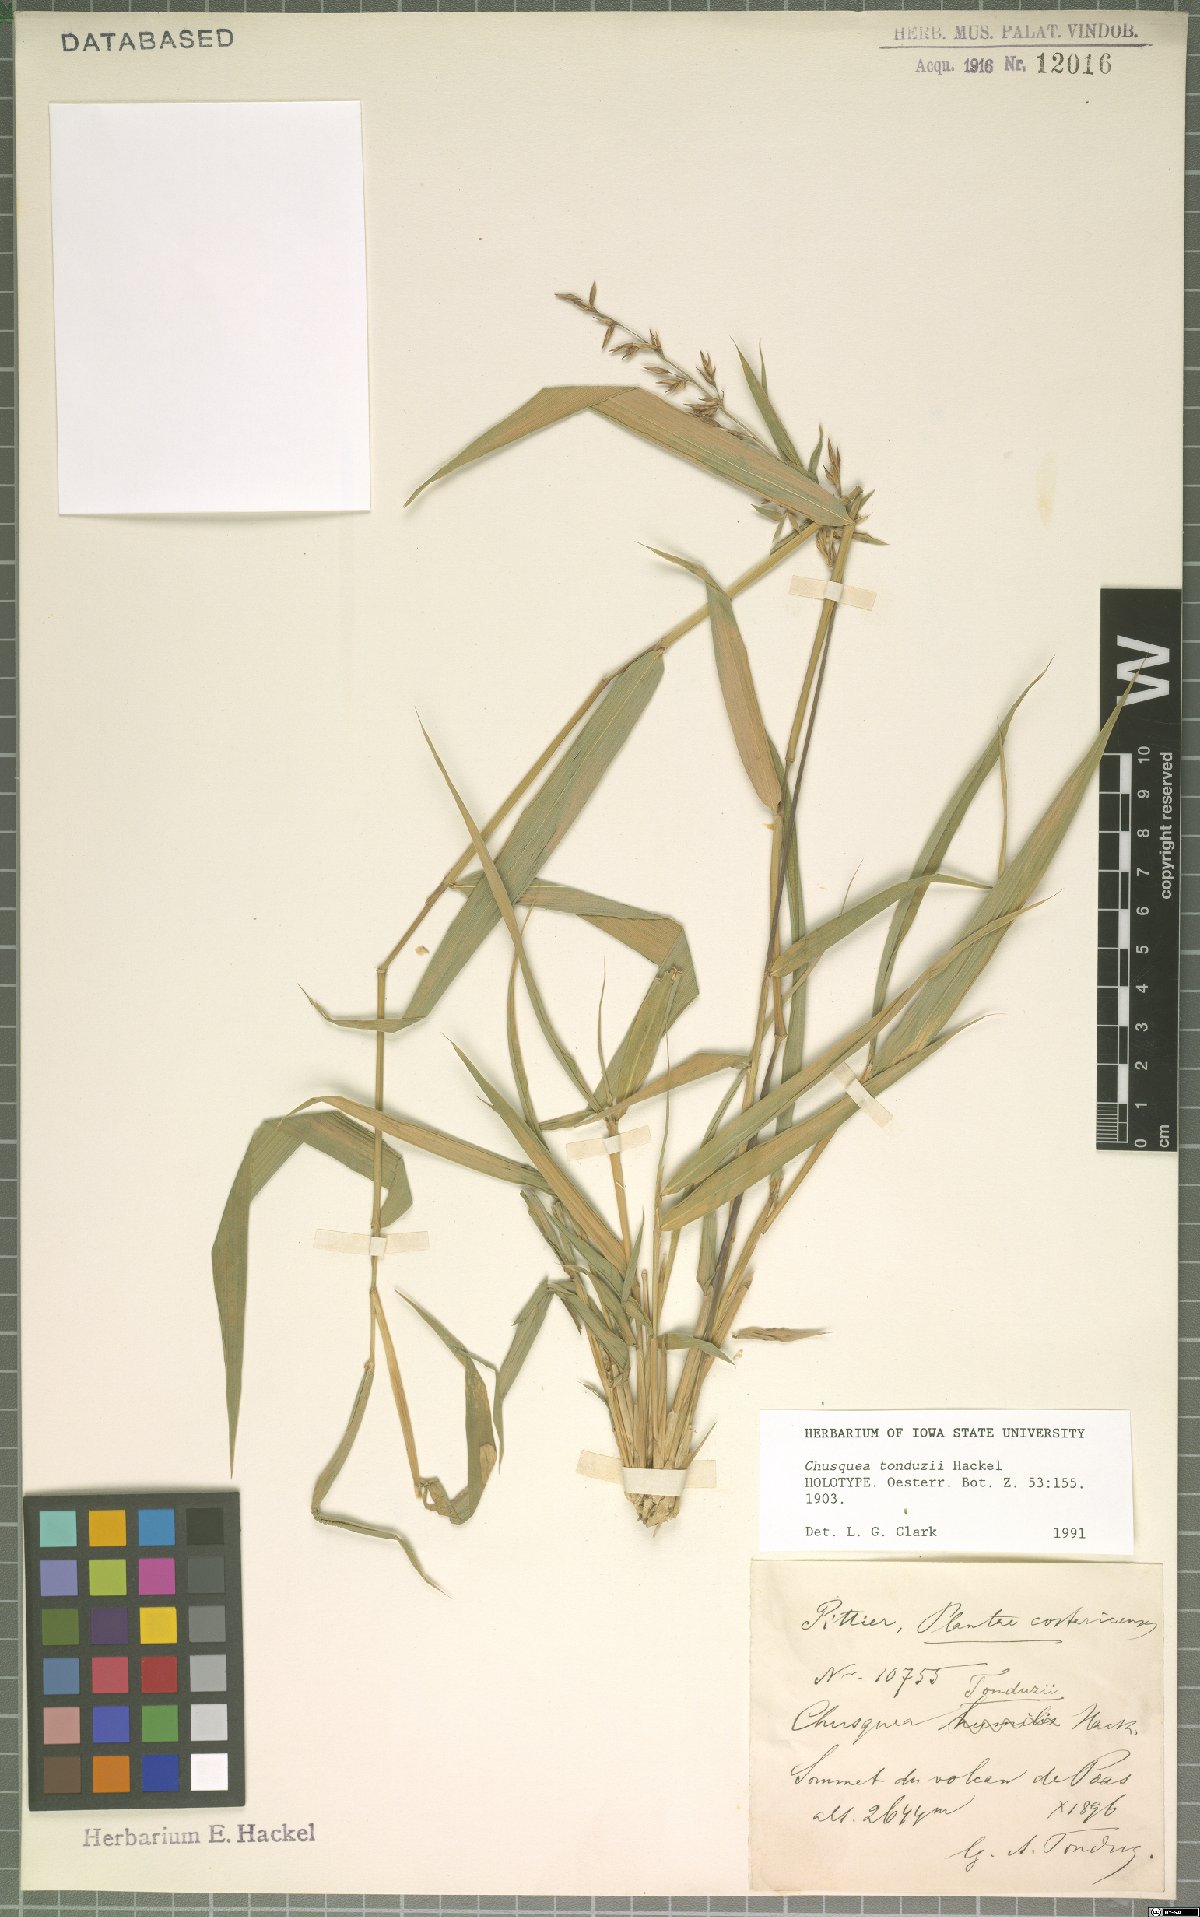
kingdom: Plantae
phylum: Tracheophyta
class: Liliopsida
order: Poales
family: Poaceae
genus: Chusquea
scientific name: Chusquea tonduzii
